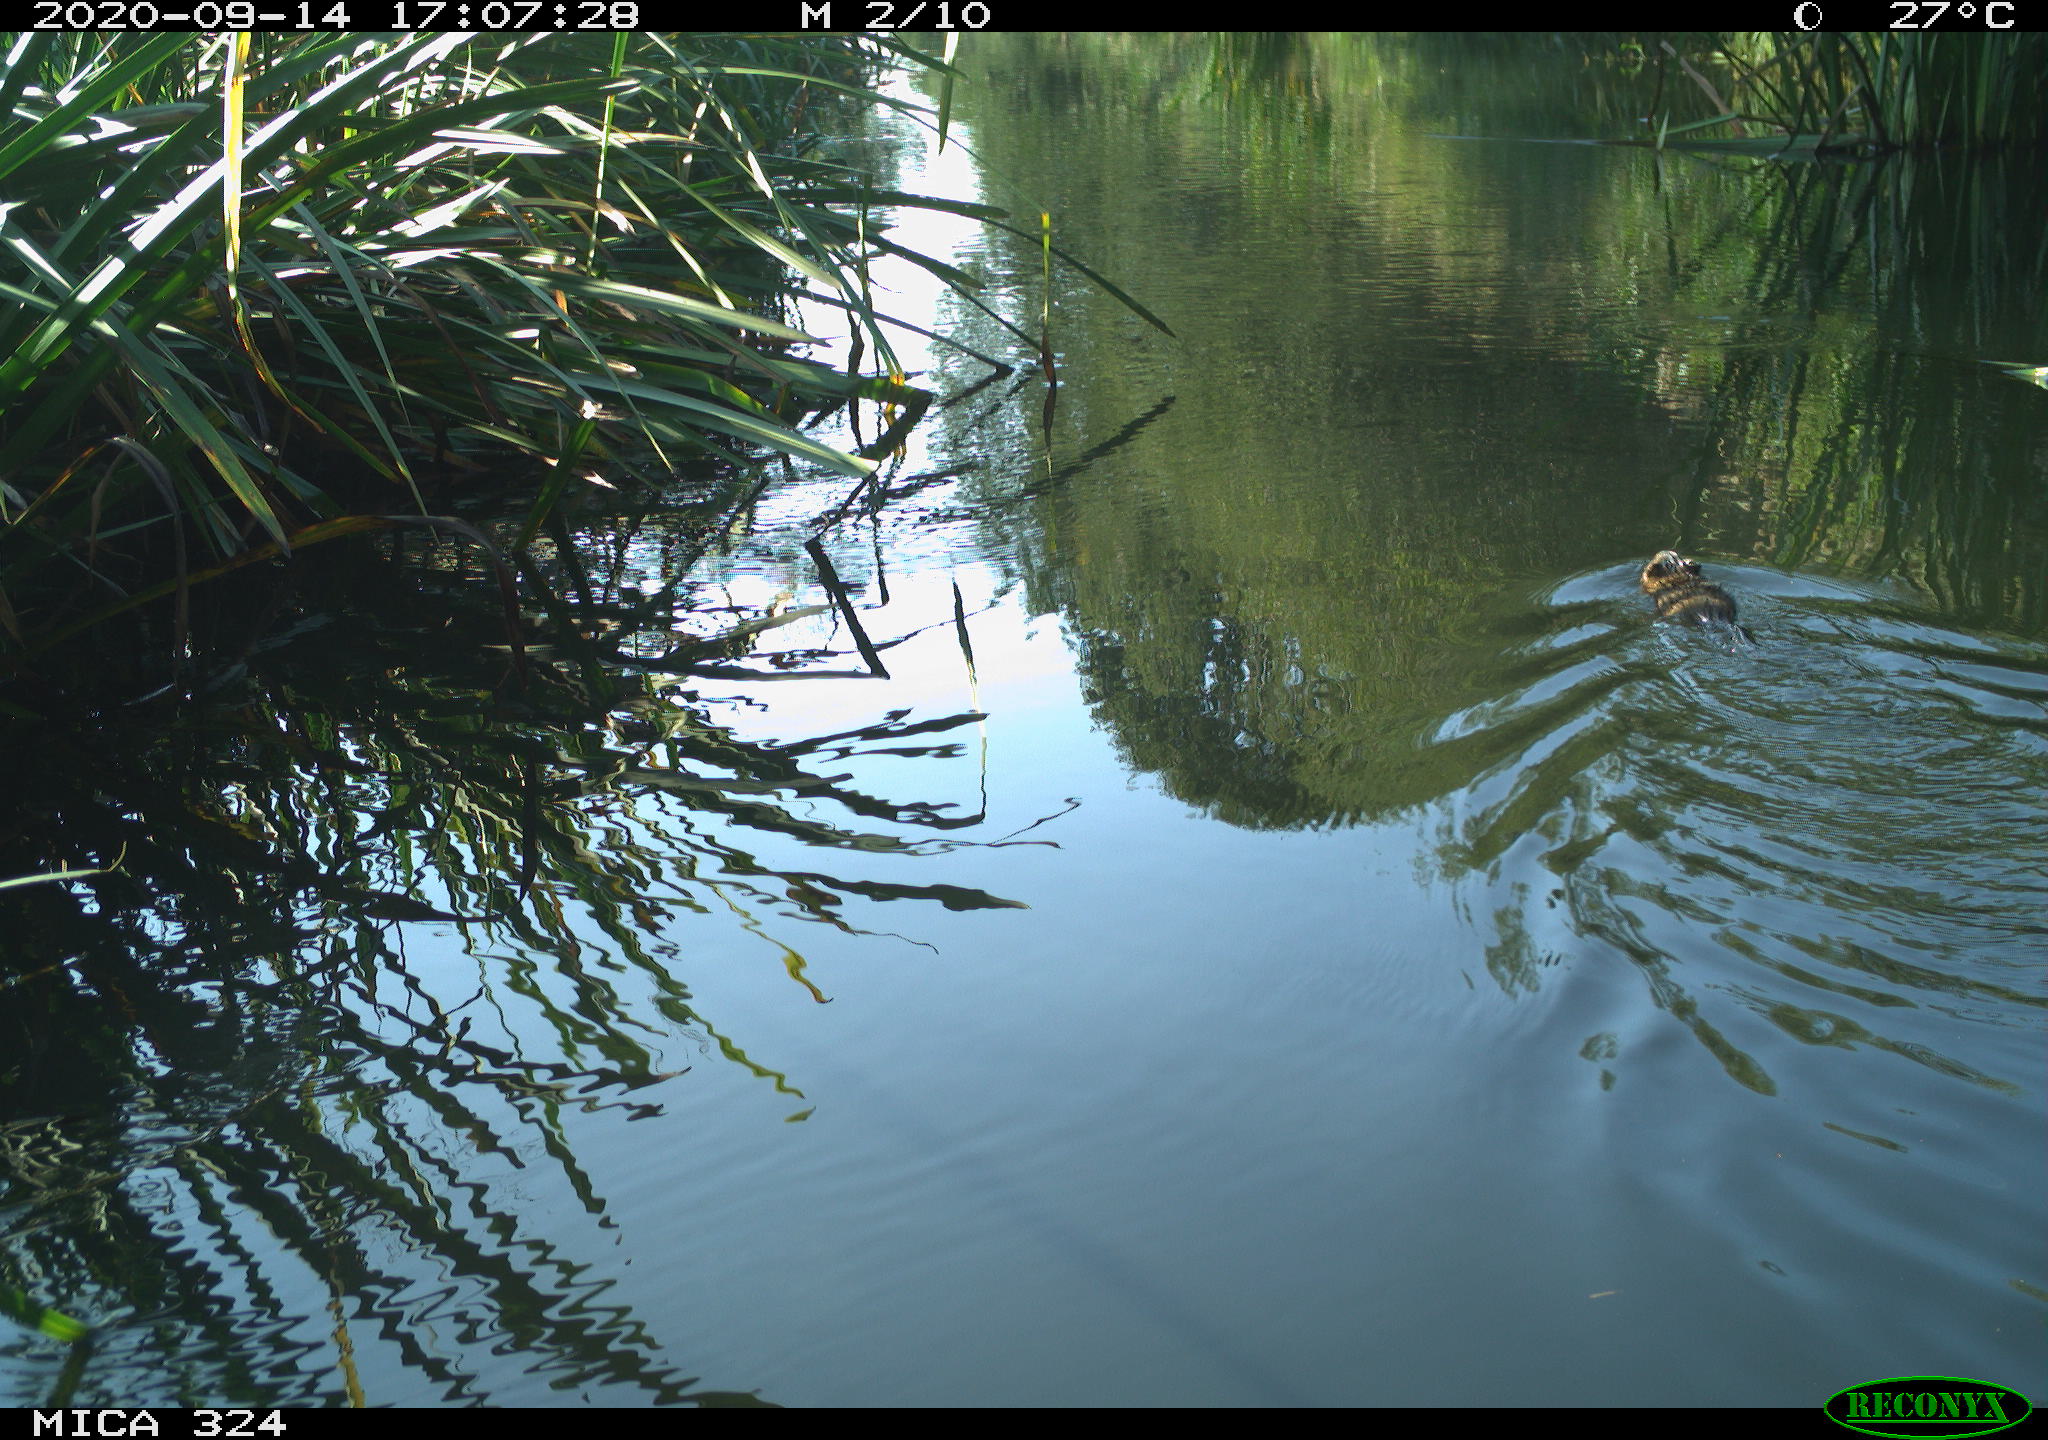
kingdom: Animalia
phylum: Chordata
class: Mammalia
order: Rodentia
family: Cricetidae
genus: Ondatra
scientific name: Ondatra zibethicus
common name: Muskrat
